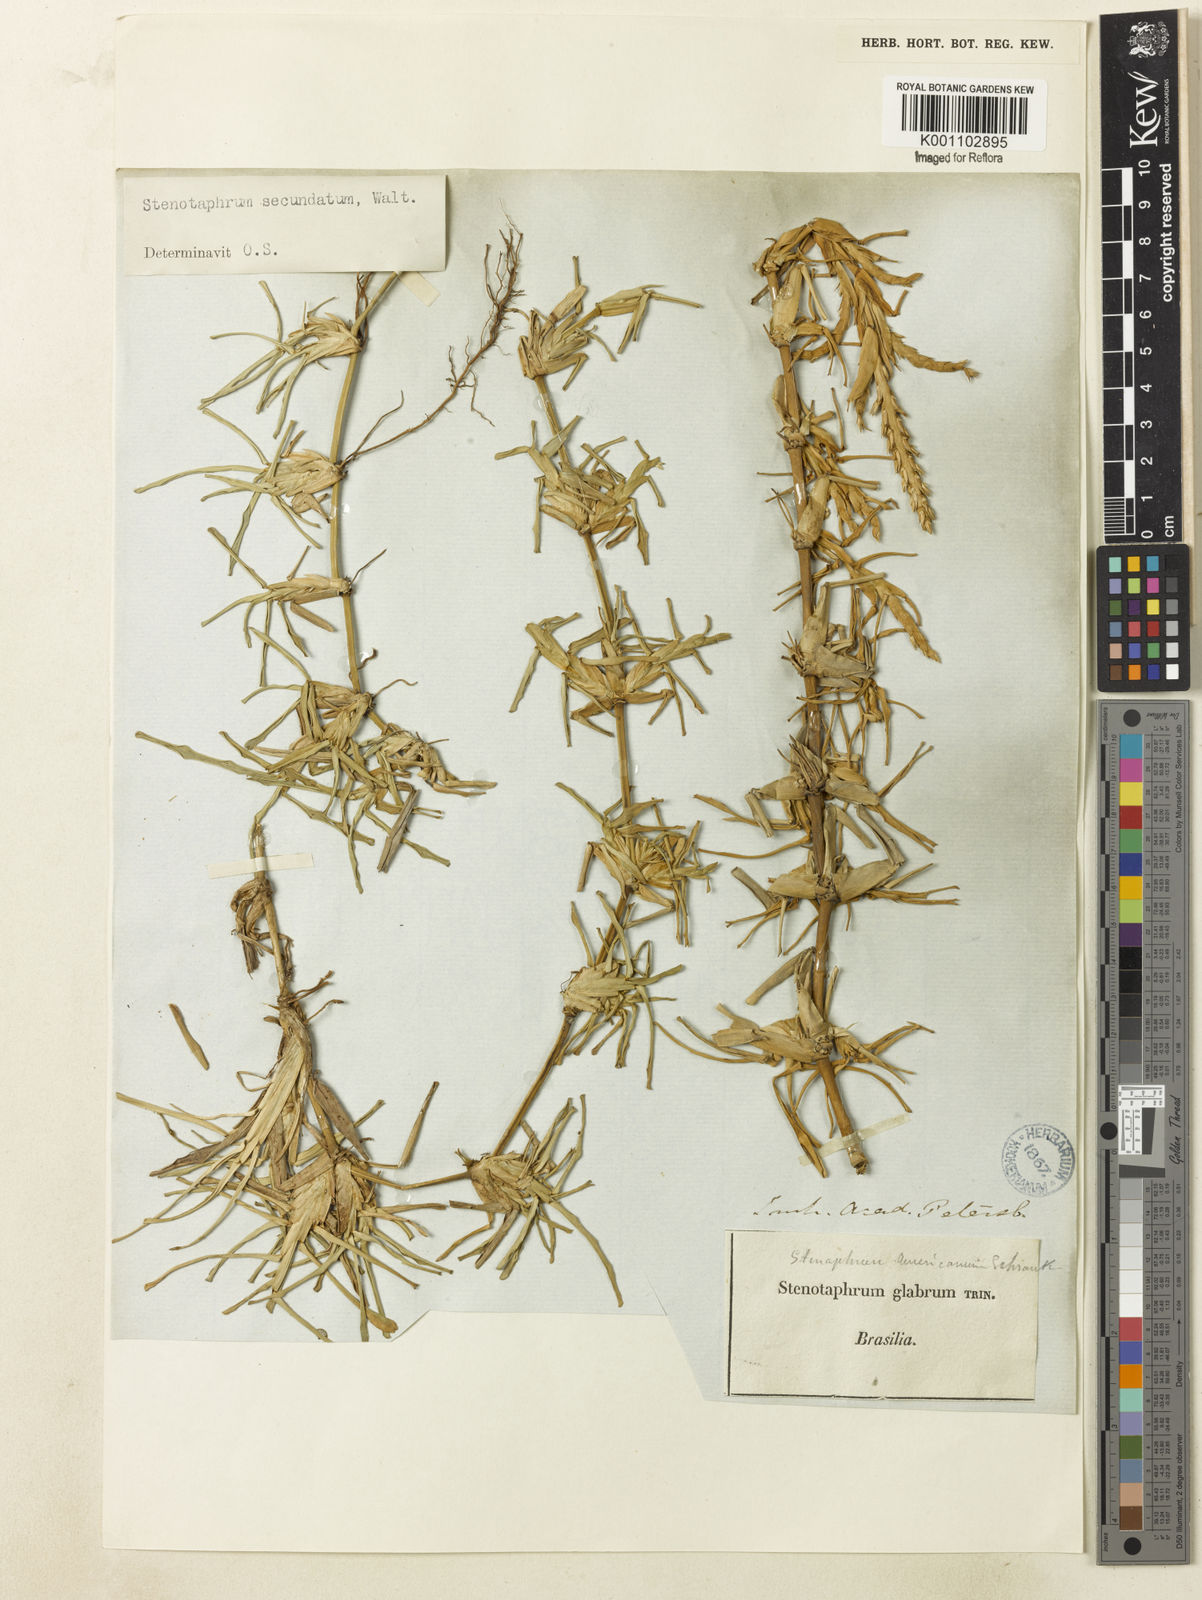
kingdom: Plantae
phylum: Tracheophyta
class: Liliopsida
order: Poales
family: Poaceae
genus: Stenotaphrum
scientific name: Stenotaphrum secundatum
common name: St. augustine grass
